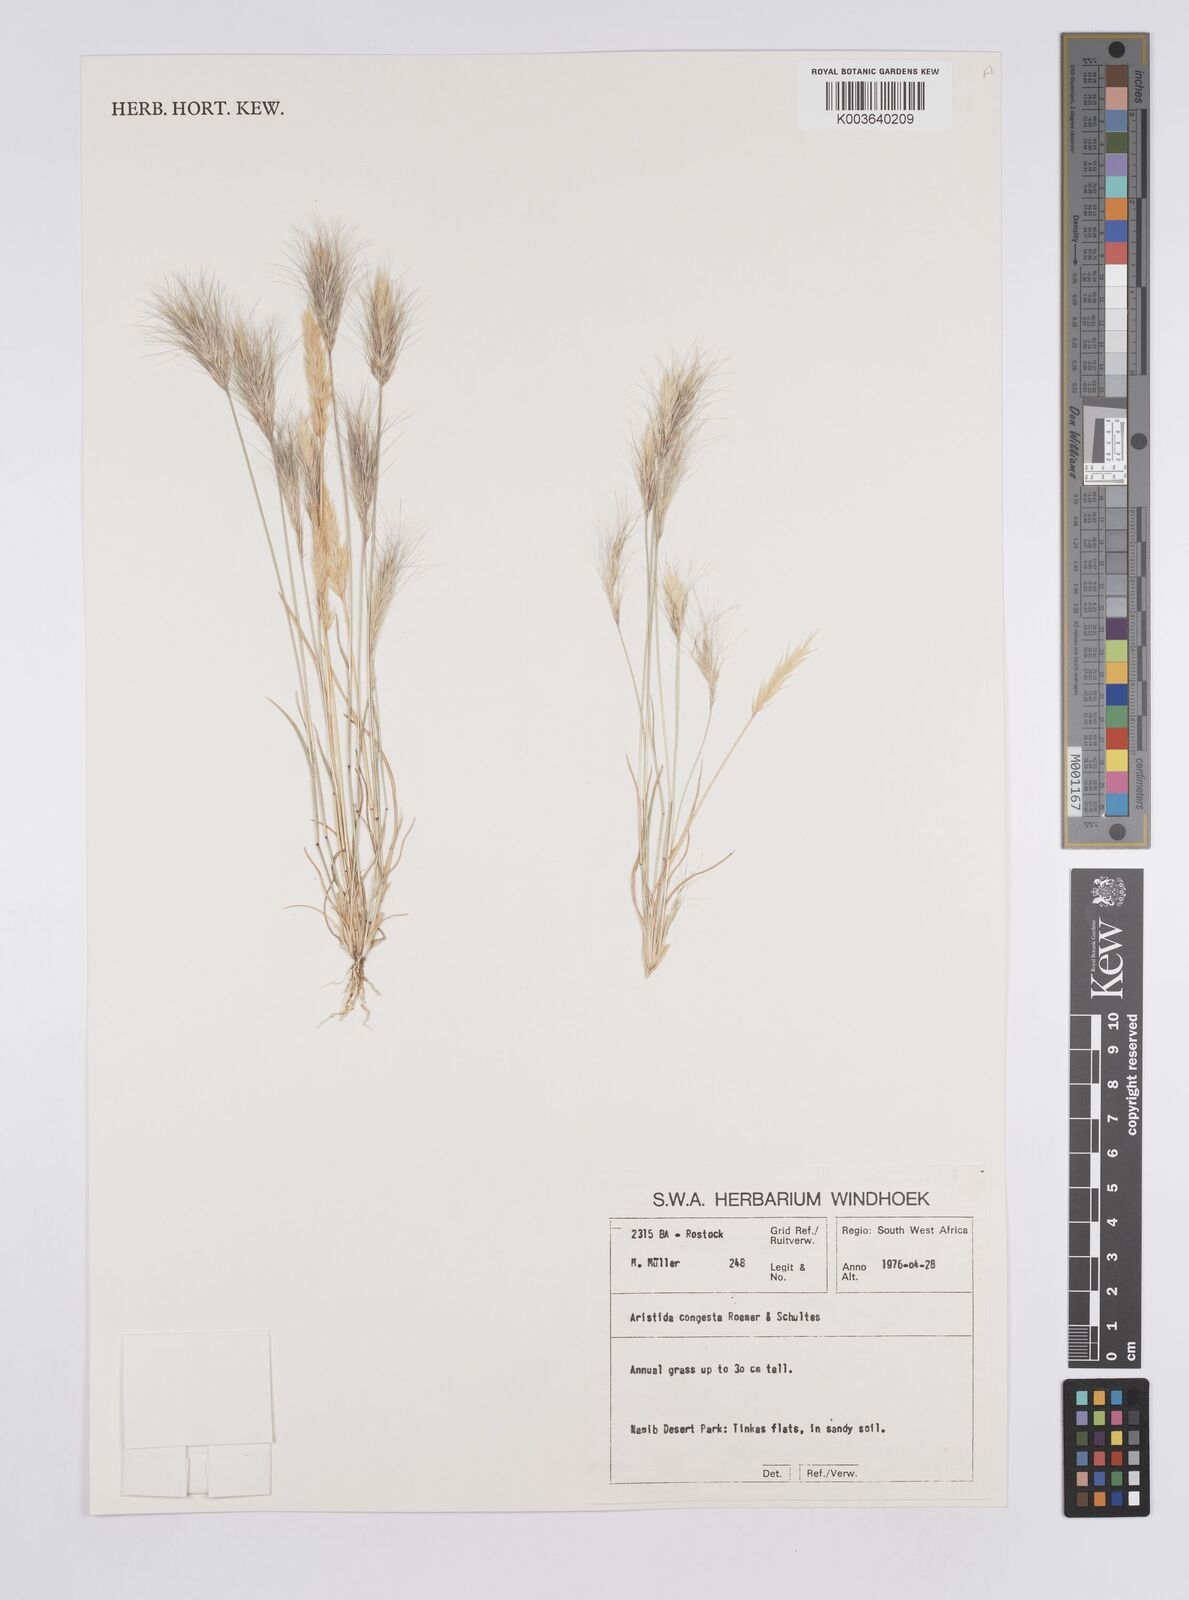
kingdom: Plantae
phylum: Tracheophyta
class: Liliopsida
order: Poales
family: Poaceae
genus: Aristida
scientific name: Aristida congesta
